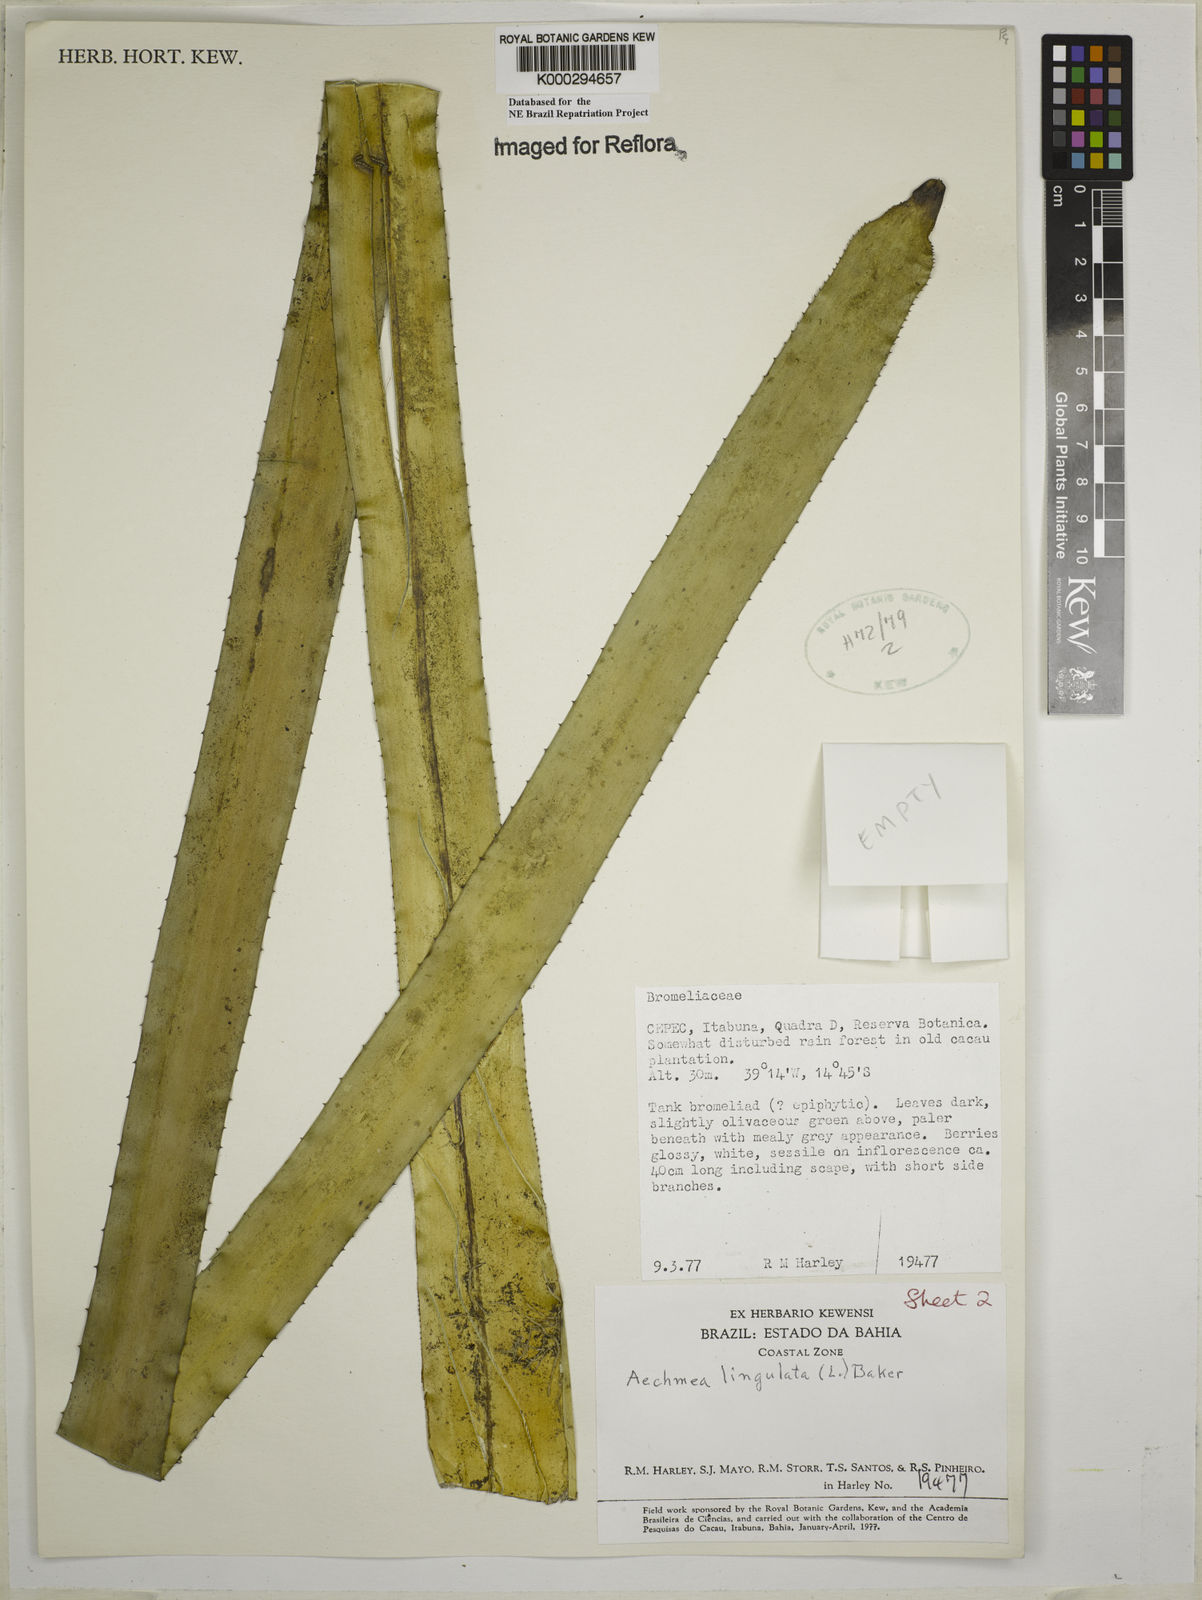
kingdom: Plantae
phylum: Tracheophyta
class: Liliopsida
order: Poales
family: Bromeliaceae
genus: Wittmackia
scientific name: Wittmackia froesii
